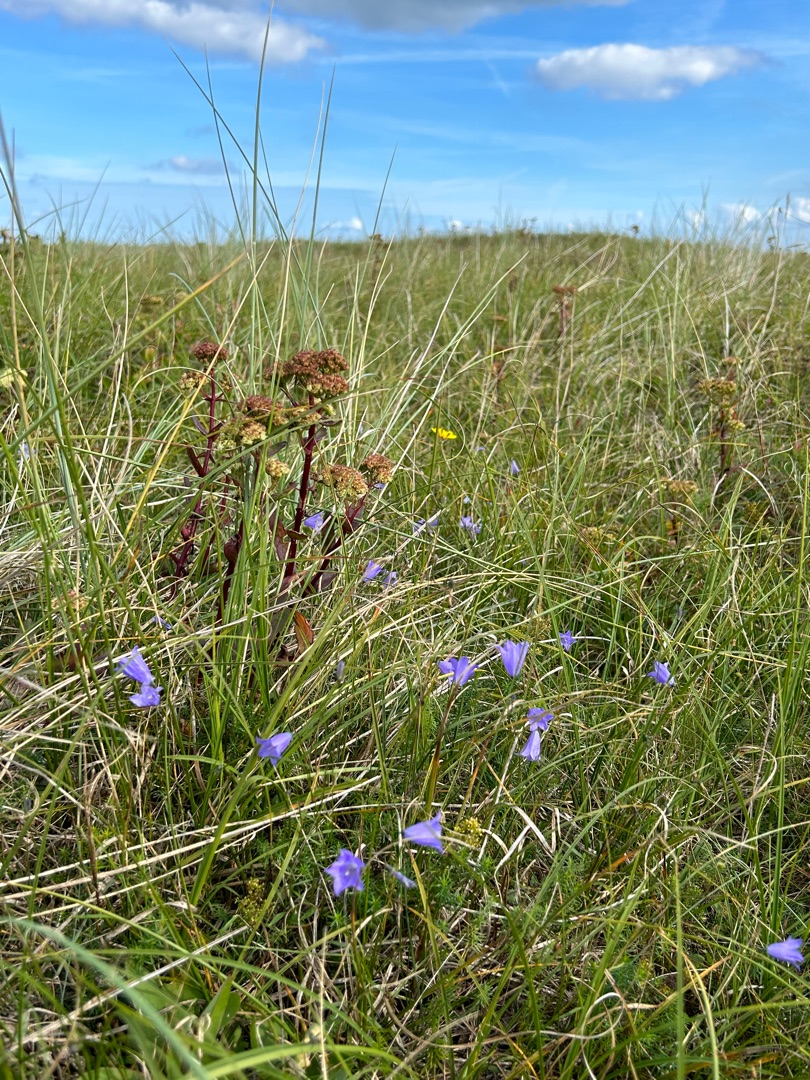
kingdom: Plantae
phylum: Tracheophyta
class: Magnoliopsida
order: Asterales
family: Campanulaceae
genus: Campanula
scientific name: Campanula rotundifolia
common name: Liden klokke
